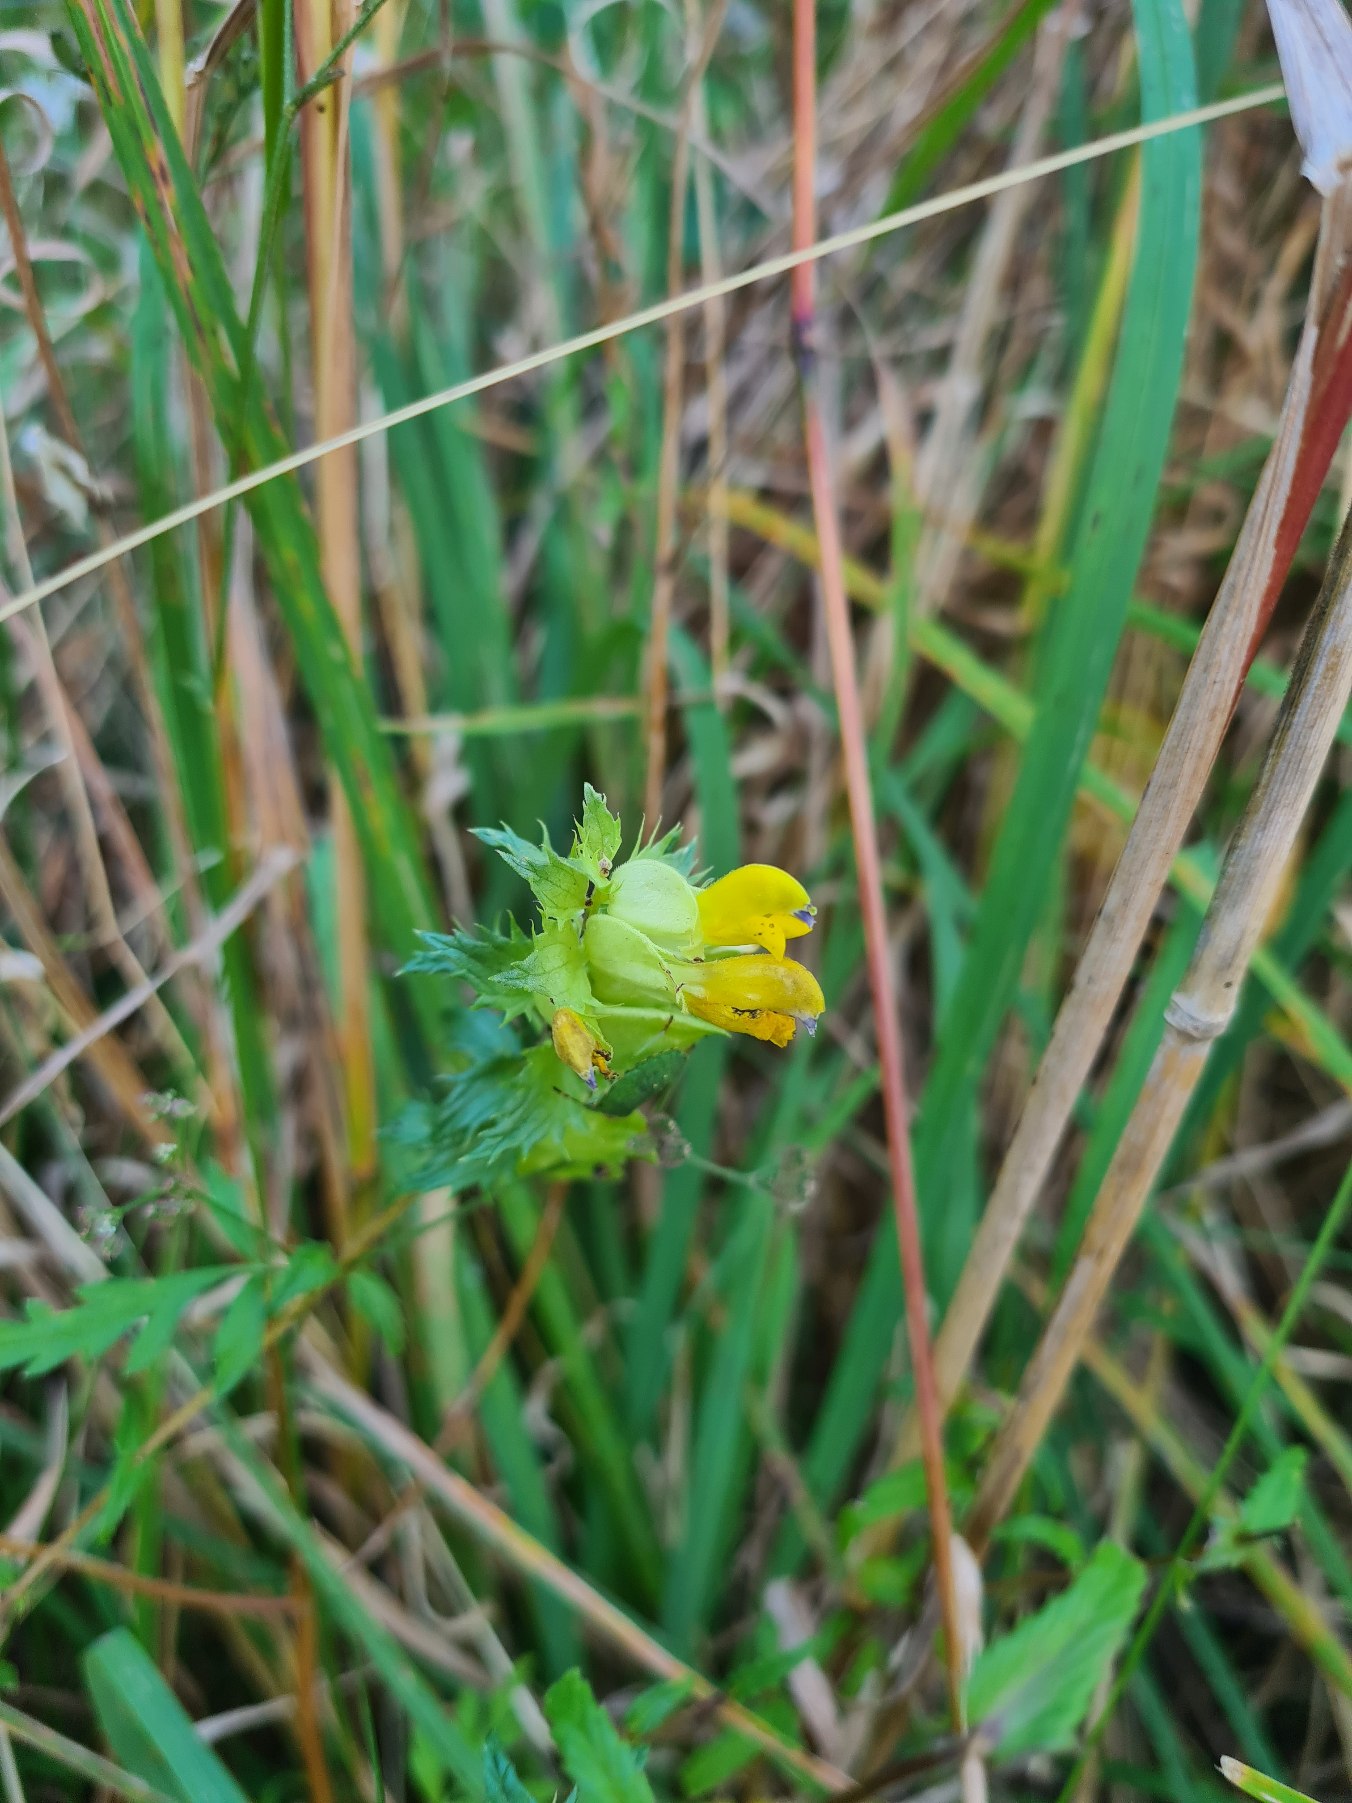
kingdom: Plantae
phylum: Tracheophyta
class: Magnoliopsida
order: Lamiales
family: Orobanchaceae
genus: Rhinanthus
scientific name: Rhinanthus
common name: Stor skjaller
